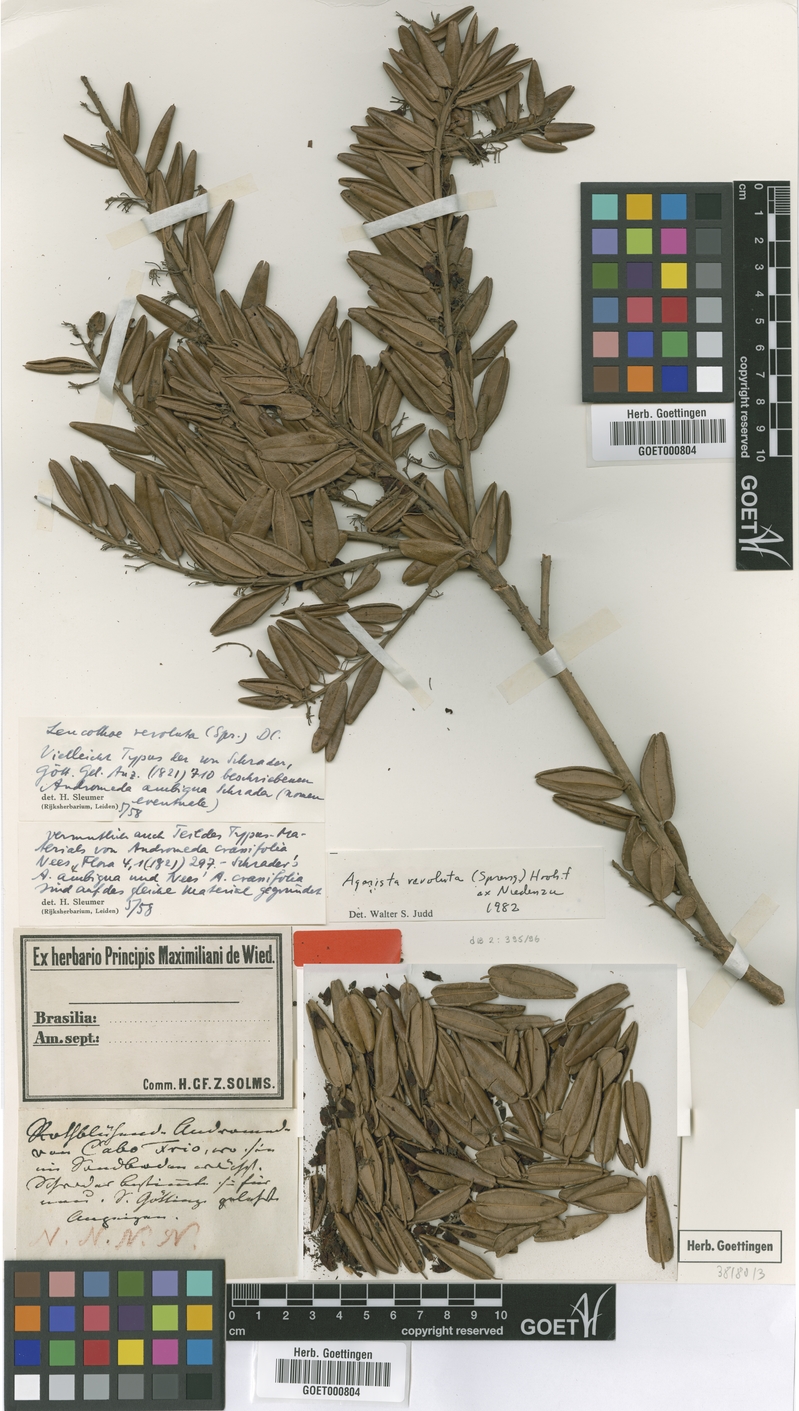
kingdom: Plantae
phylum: Tracheophyta
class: Magnoliopsida
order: Ericales
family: Ericaceae
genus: Agarista
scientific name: Agarista revoluta
